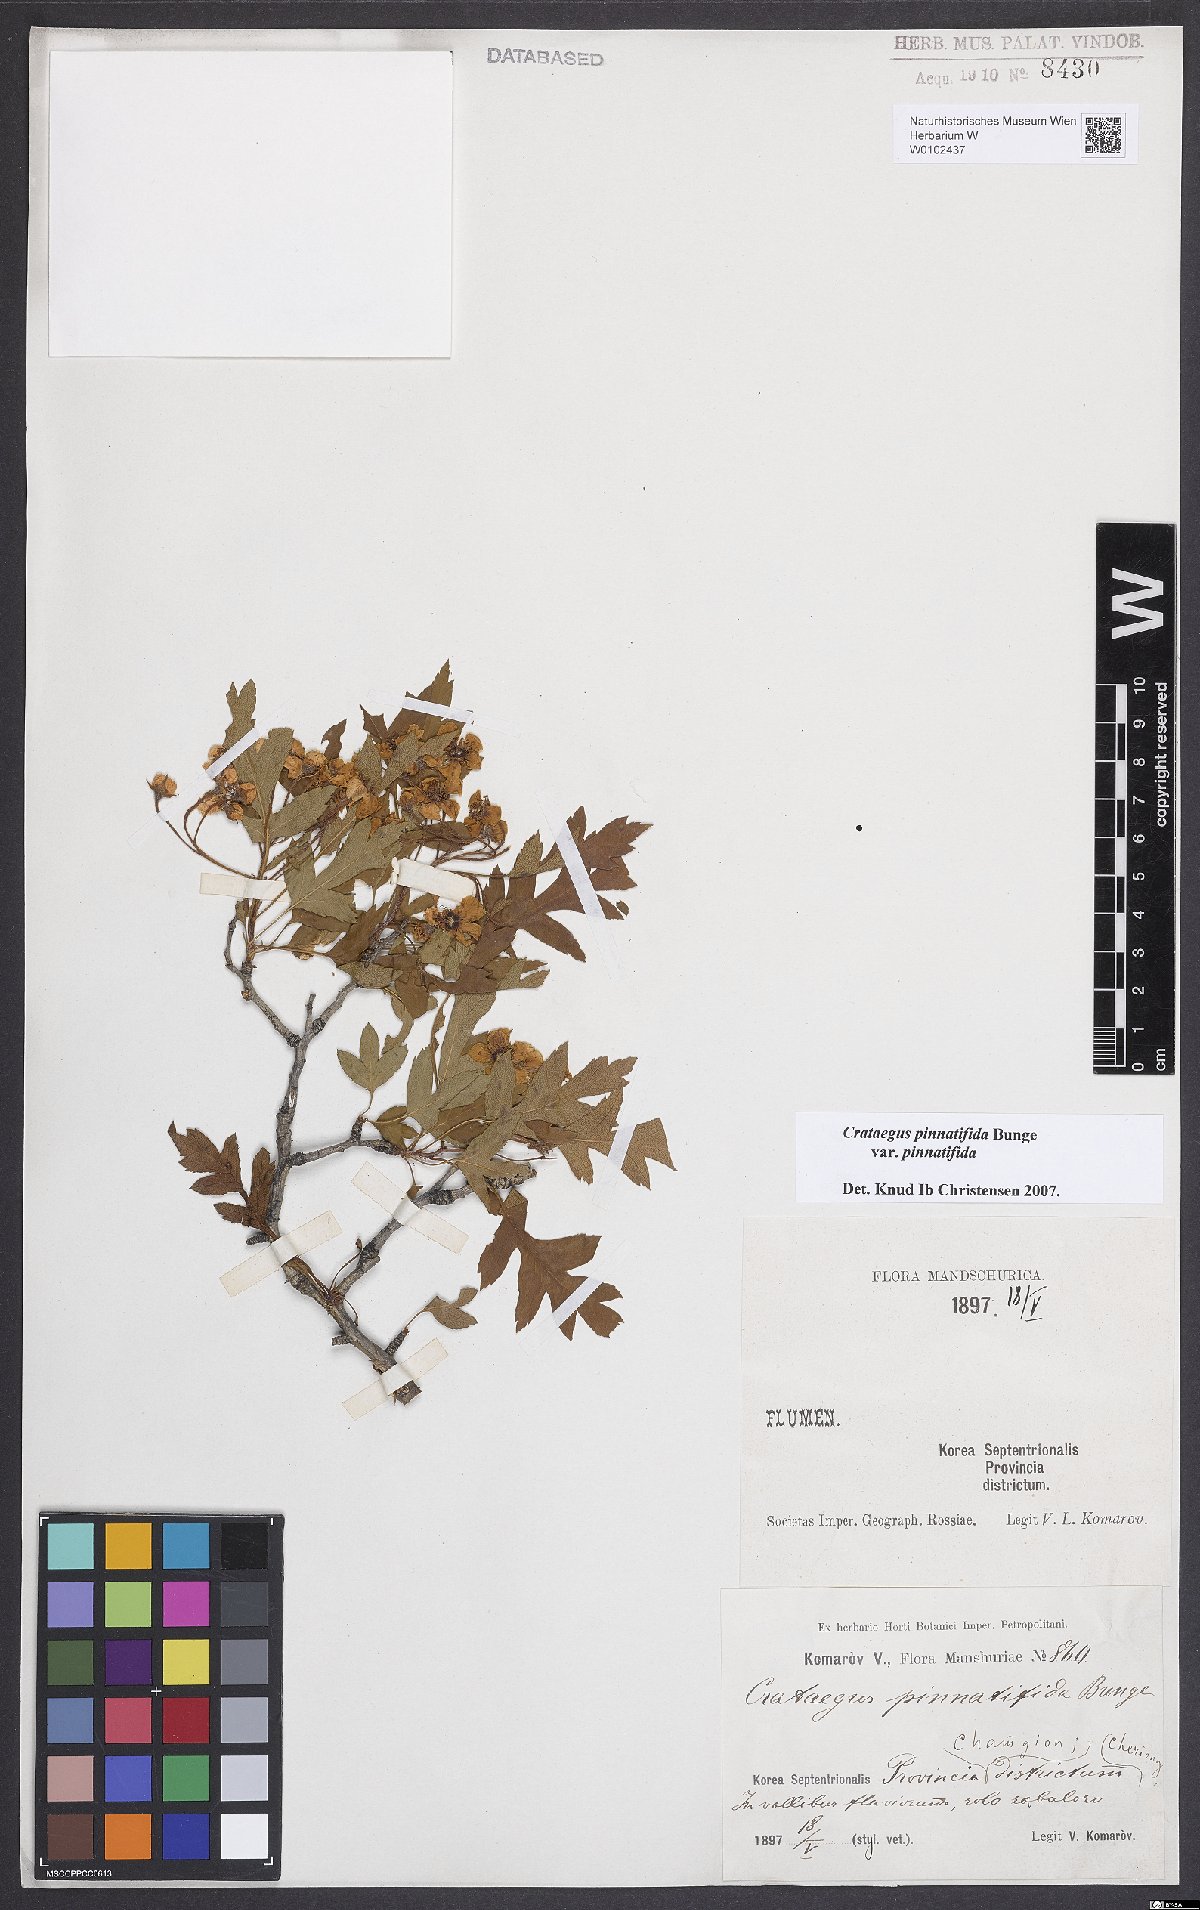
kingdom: Plantae
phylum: Tracheophyta
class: Magnoliopsida
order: Rosales
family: Rosaceae
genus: Crataegus
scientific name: Crataegus pinnatifida
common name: Chinese haw
